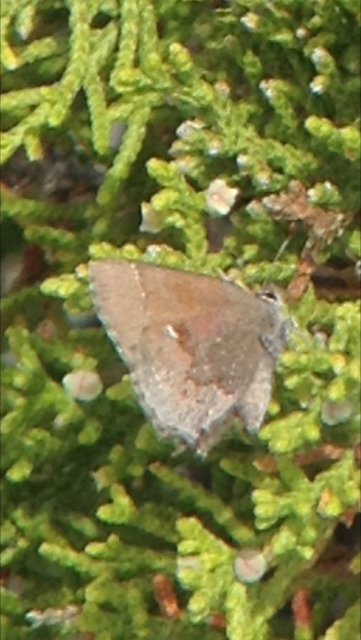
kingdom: Animalia
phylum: Arthropoda
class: Insecta
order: Lepidoptera
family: Lycaenidae
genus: Incisalia
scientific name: Incisalia henrici
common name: Henry's Elfin
